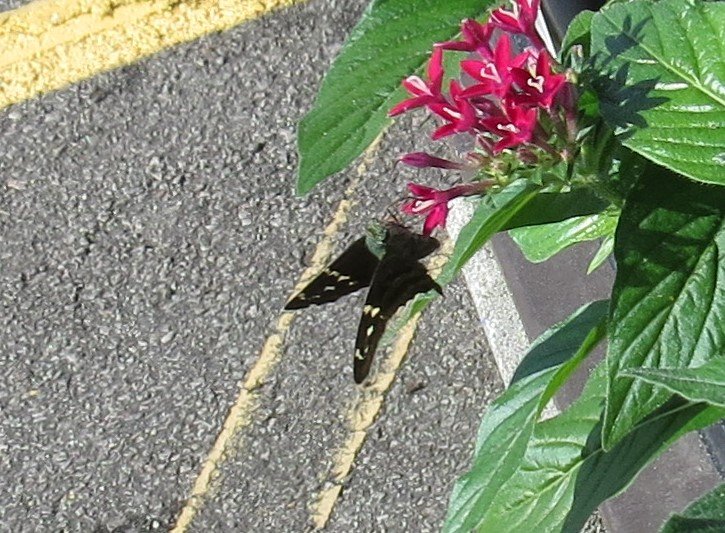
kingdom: Animalia
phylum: Arthropoda
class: Insecta
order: Lepidoptera
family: Hesperiidae
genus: Gesta
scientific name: Gesta
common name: Horace's Duskywing
